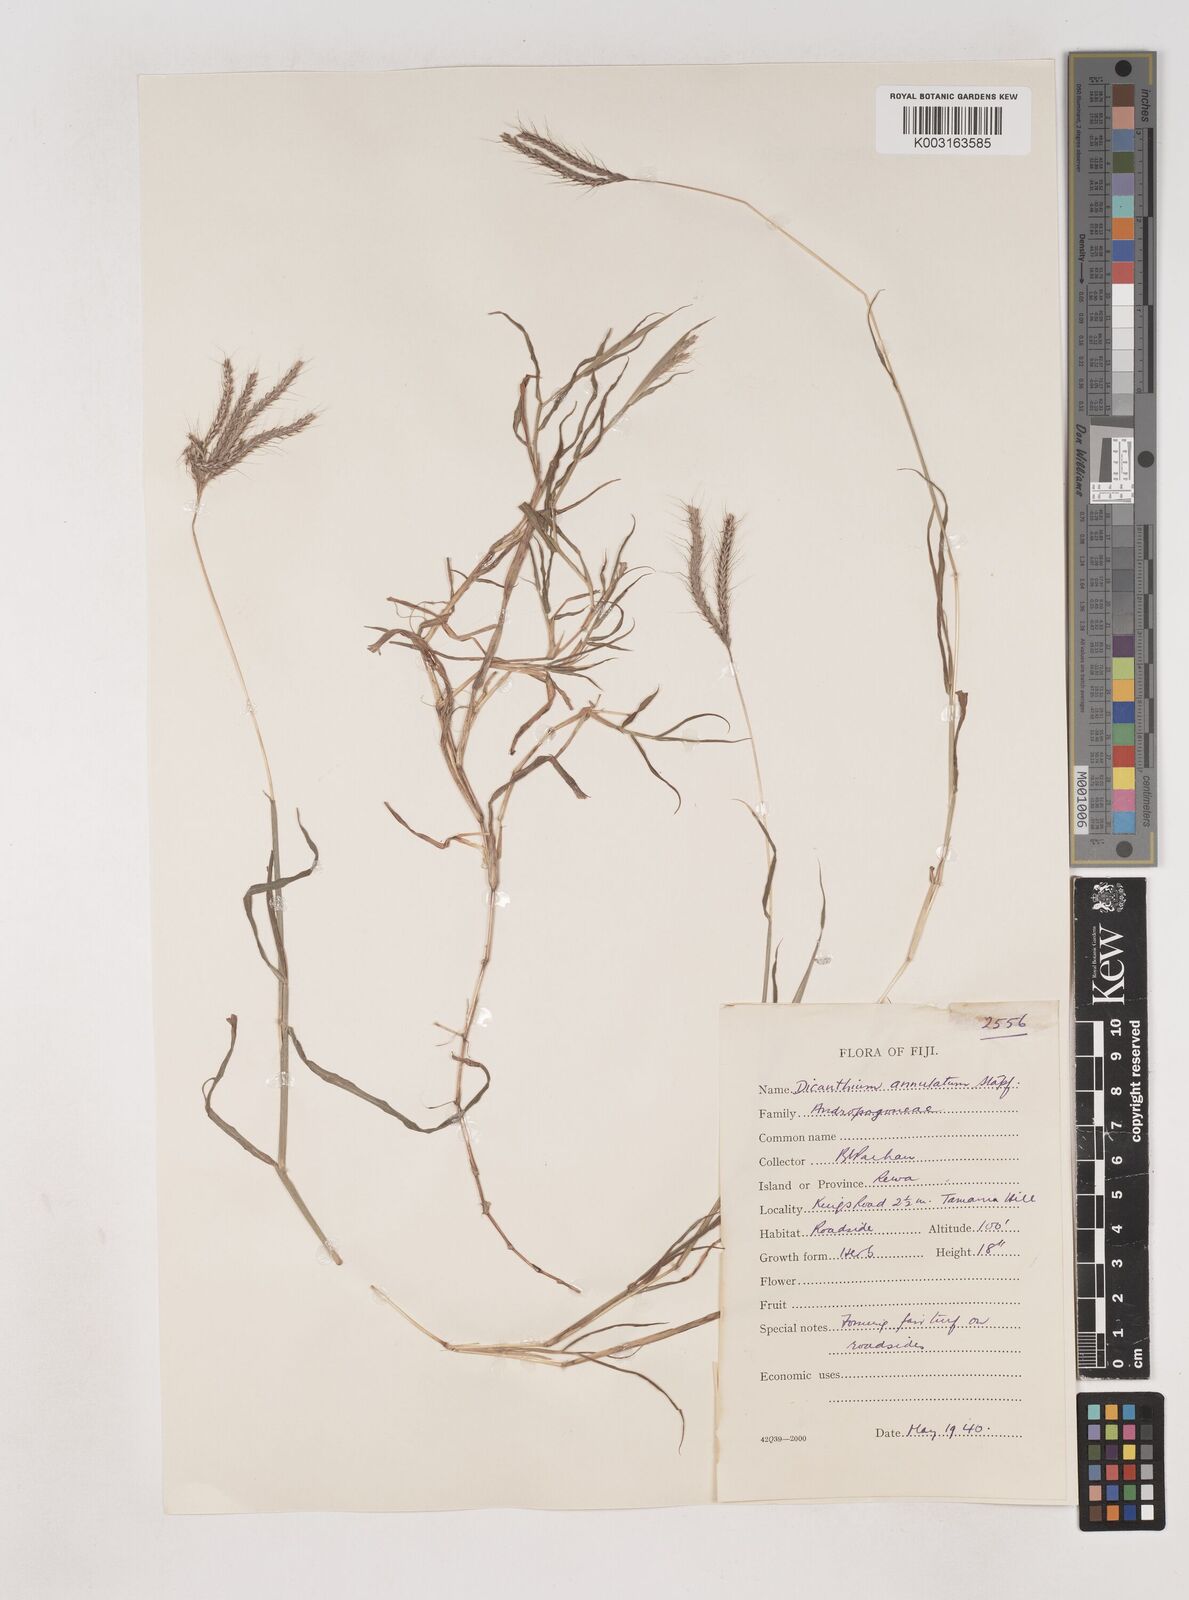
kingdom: Plantae
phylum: Tracheophyta
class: Liliopsida
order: Poales
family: Poaceae
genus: Dichanthium
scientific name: Dichanthium annulatum
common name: Kleberg's bluestem
